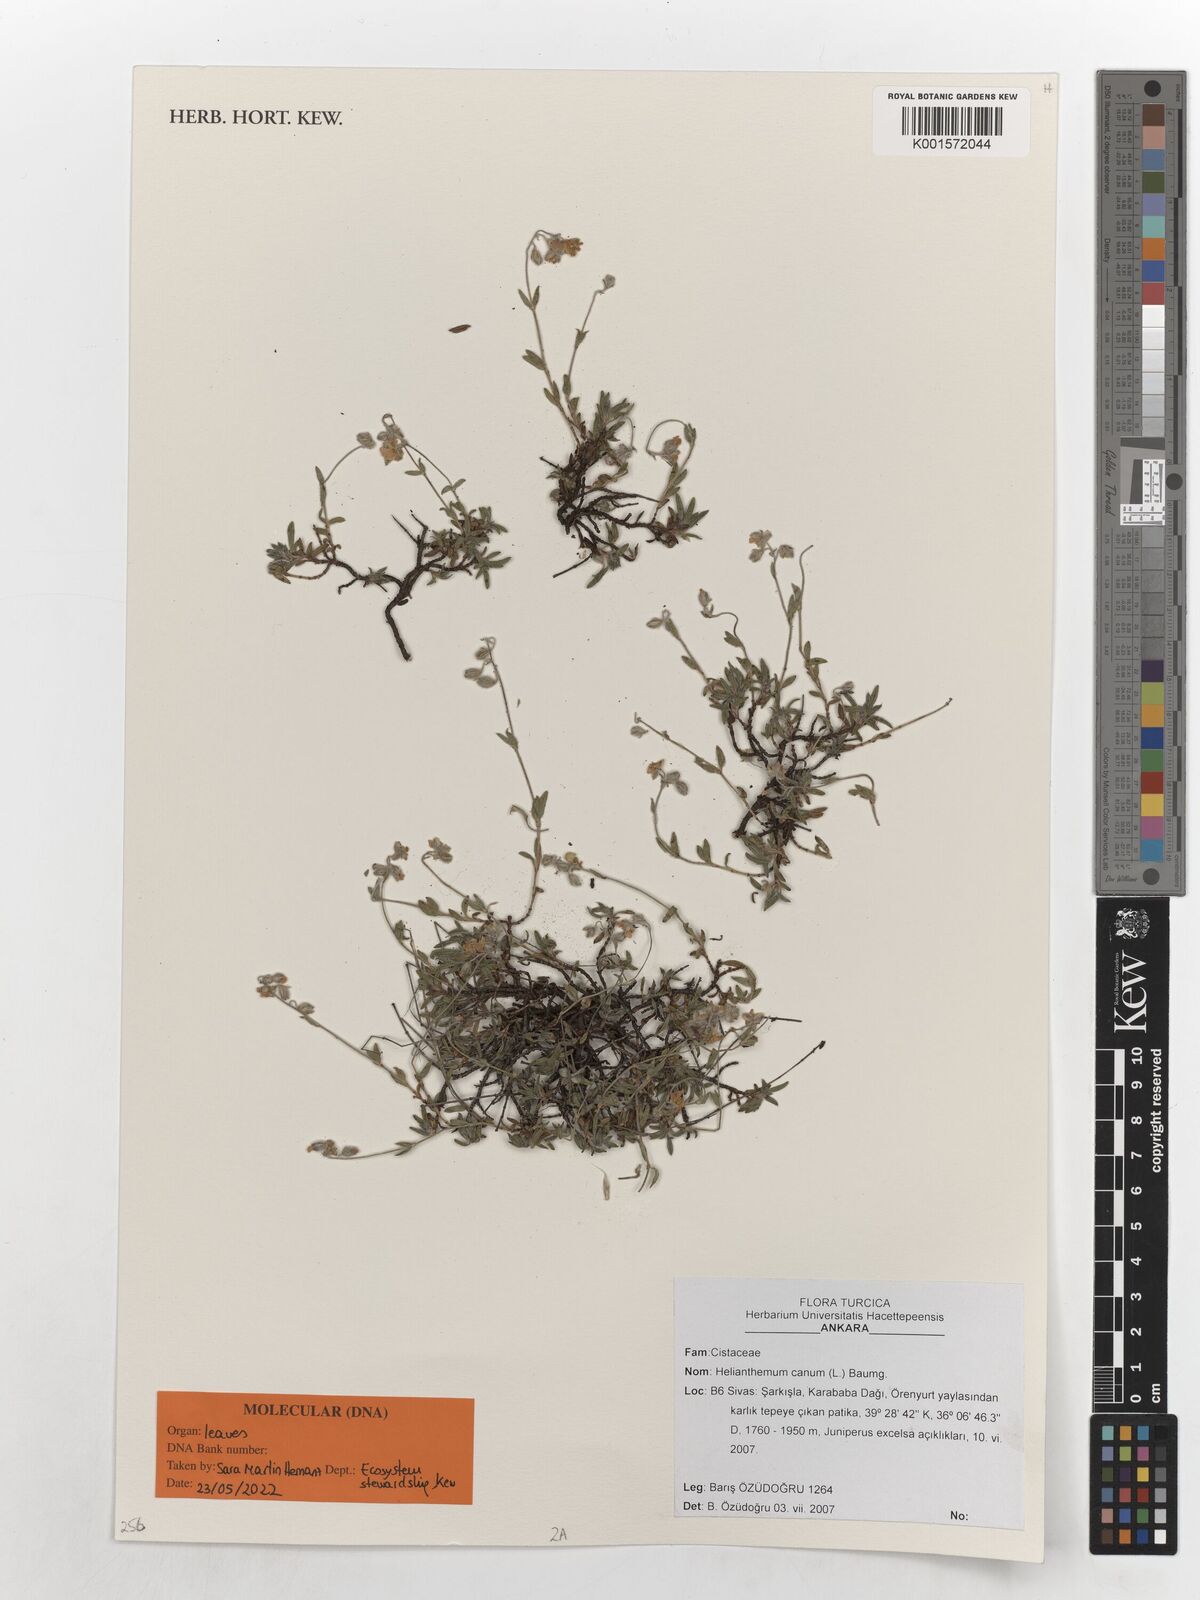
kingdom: Plantae
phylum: Tracheophyta
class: Magnoliopsida
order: Malvales
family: Cistaceae
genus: Helianthemum
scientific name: Helianthemum canum
